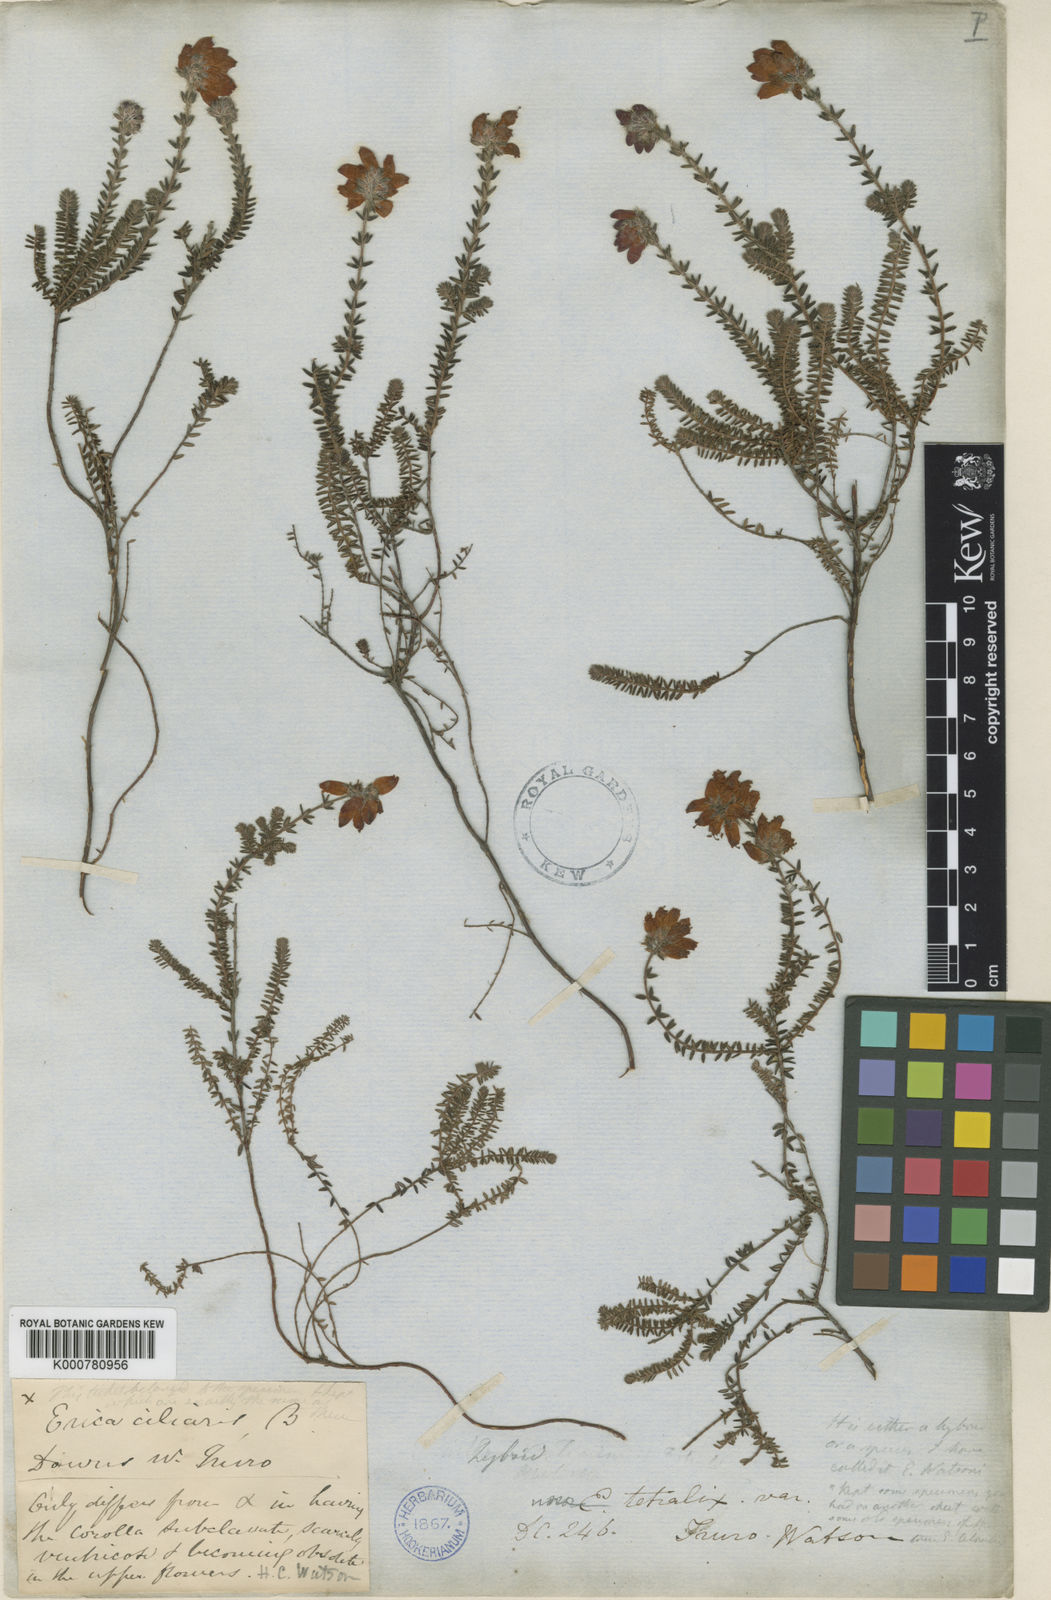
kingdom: Plantae
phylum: Tracheophyta
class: Magnoliopsida
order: Ericales
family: Ericaceae
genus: Erica
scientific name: Erica watsonii
